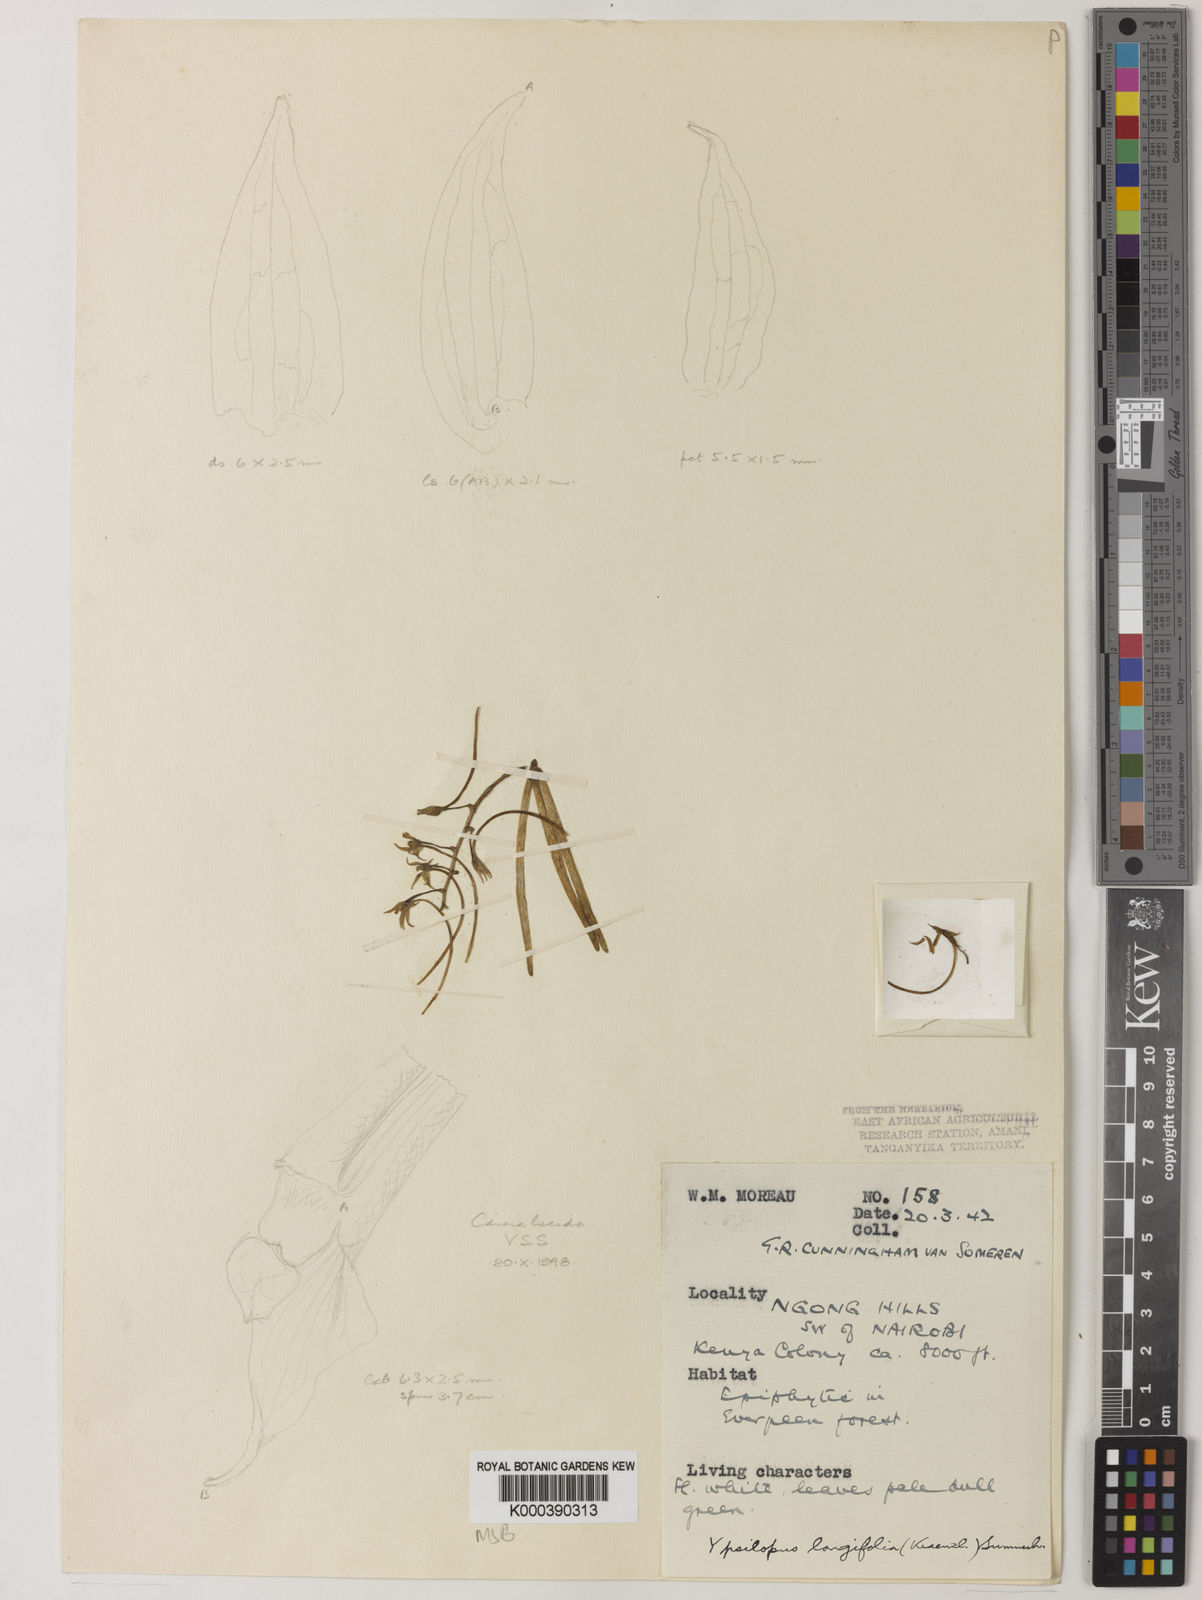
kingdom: Plantae
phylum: Tracheophyta
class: Liliopsida
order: Asparagales
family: Orchidaceae
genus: Ypsilopus
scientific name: Ypsilopus longifolius
